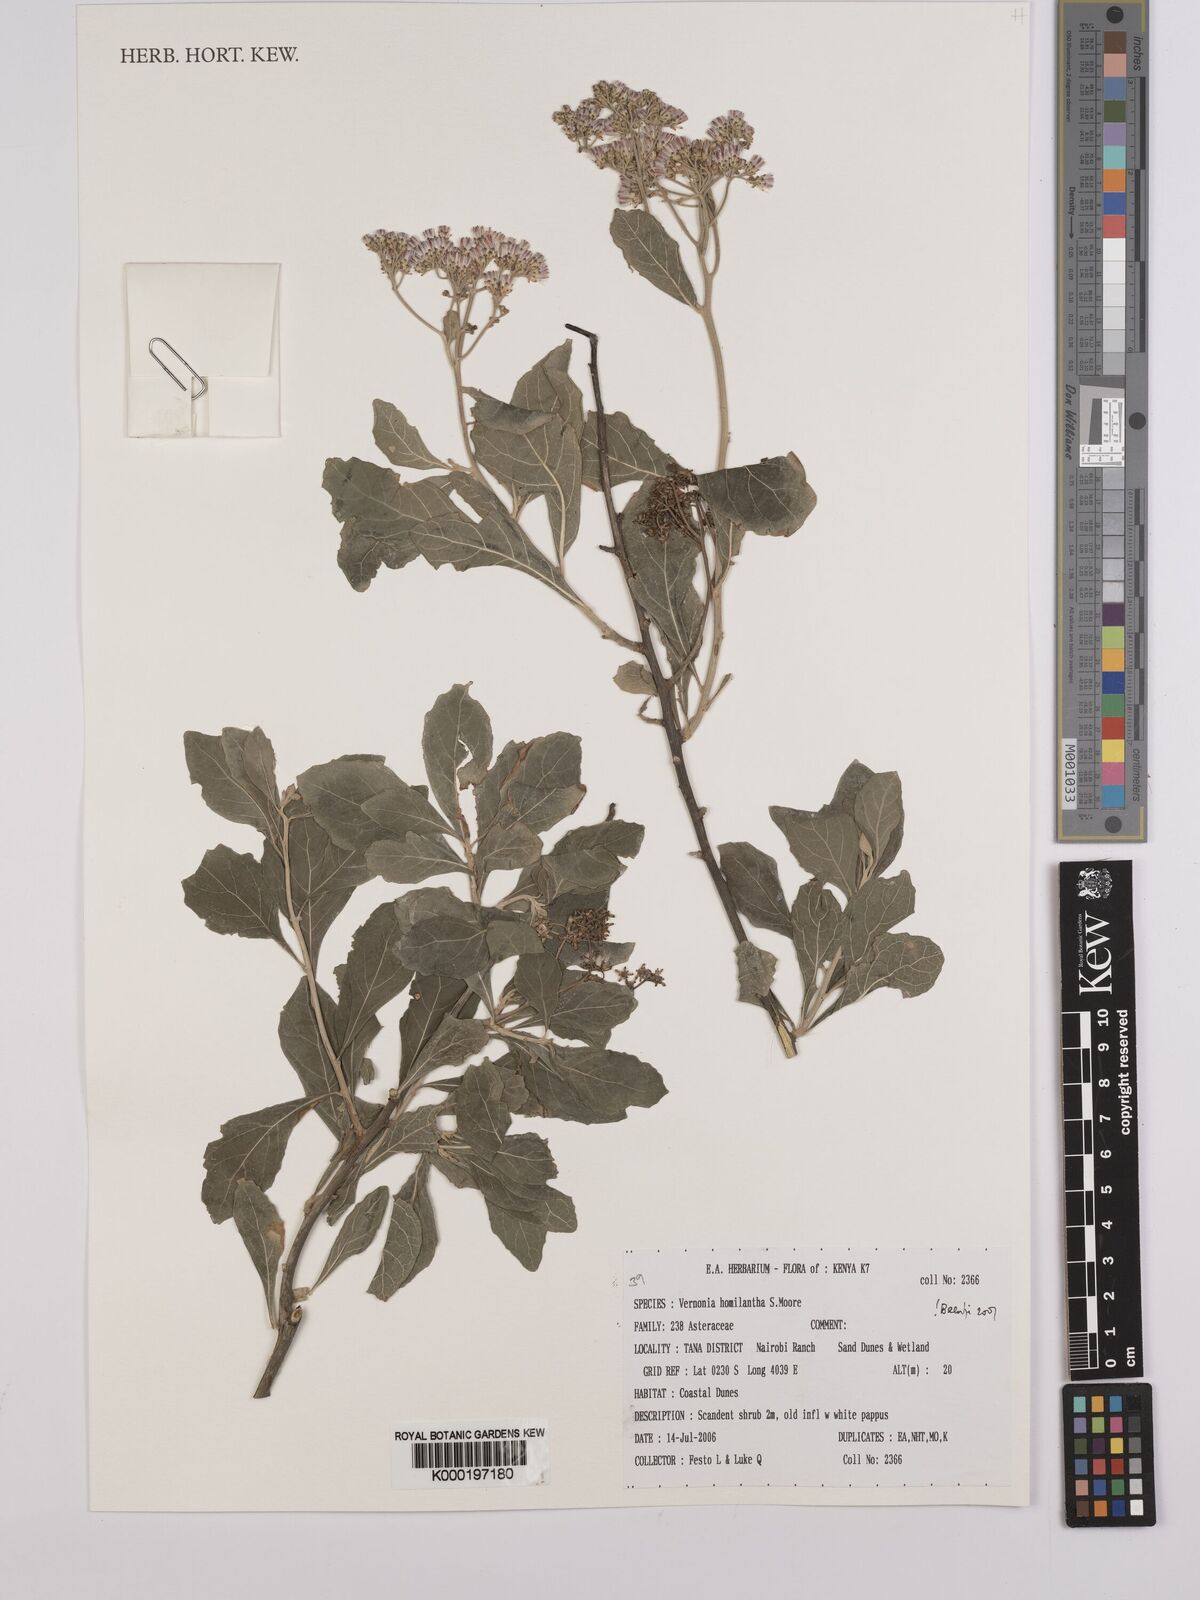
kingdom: Plantae
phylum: Tracheophyta
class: Magnoliopsida
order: Asterales
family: Asteraceae
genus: Orbivestus
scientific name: Orbivestus homilanthus
